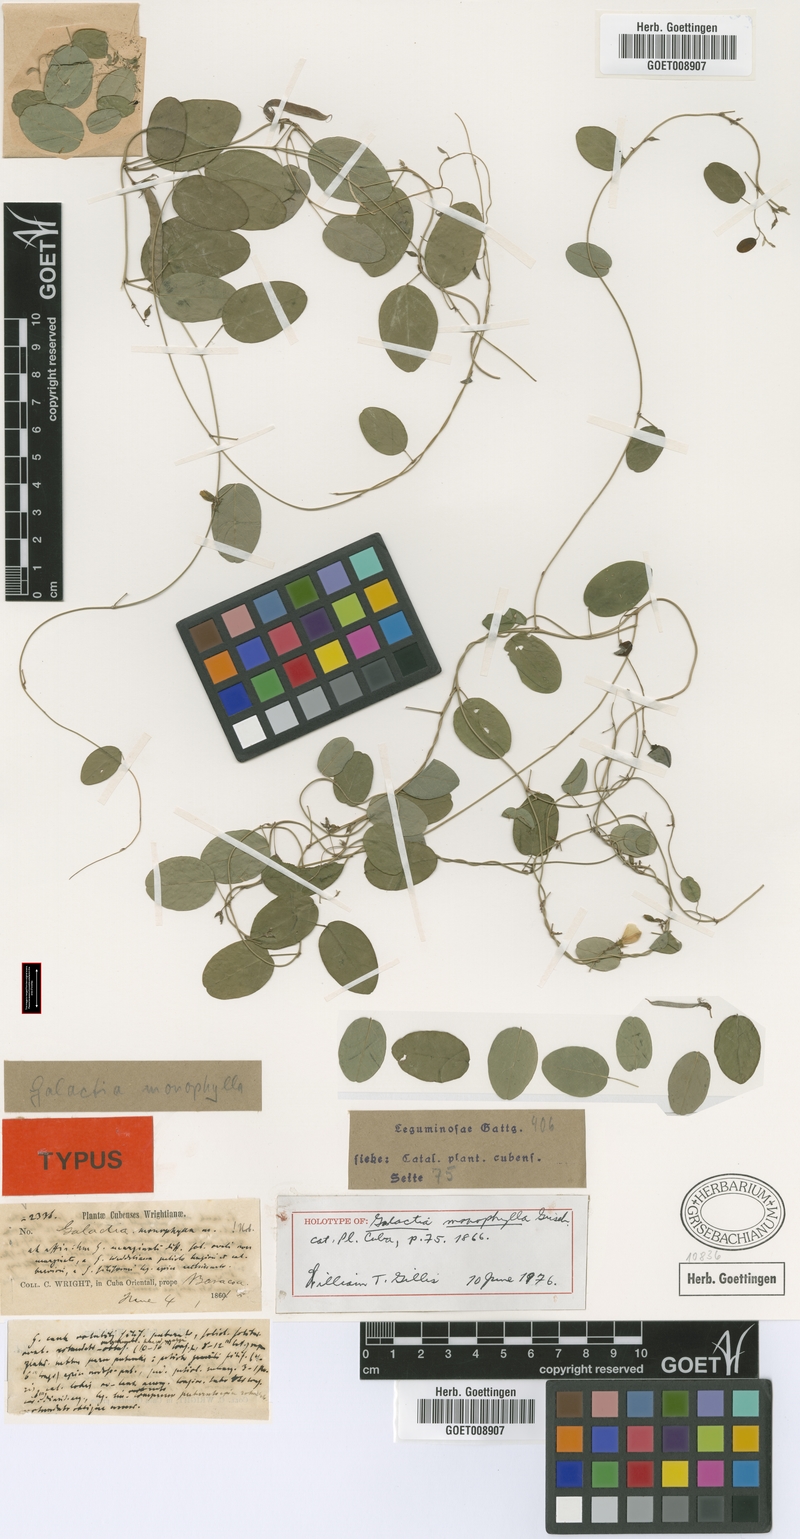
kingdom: Plantae
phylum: Tracheophyta
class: Magnoliopsida
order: Fabales
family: Fabaceae
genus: Galactia
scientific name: Galactia monophylla
